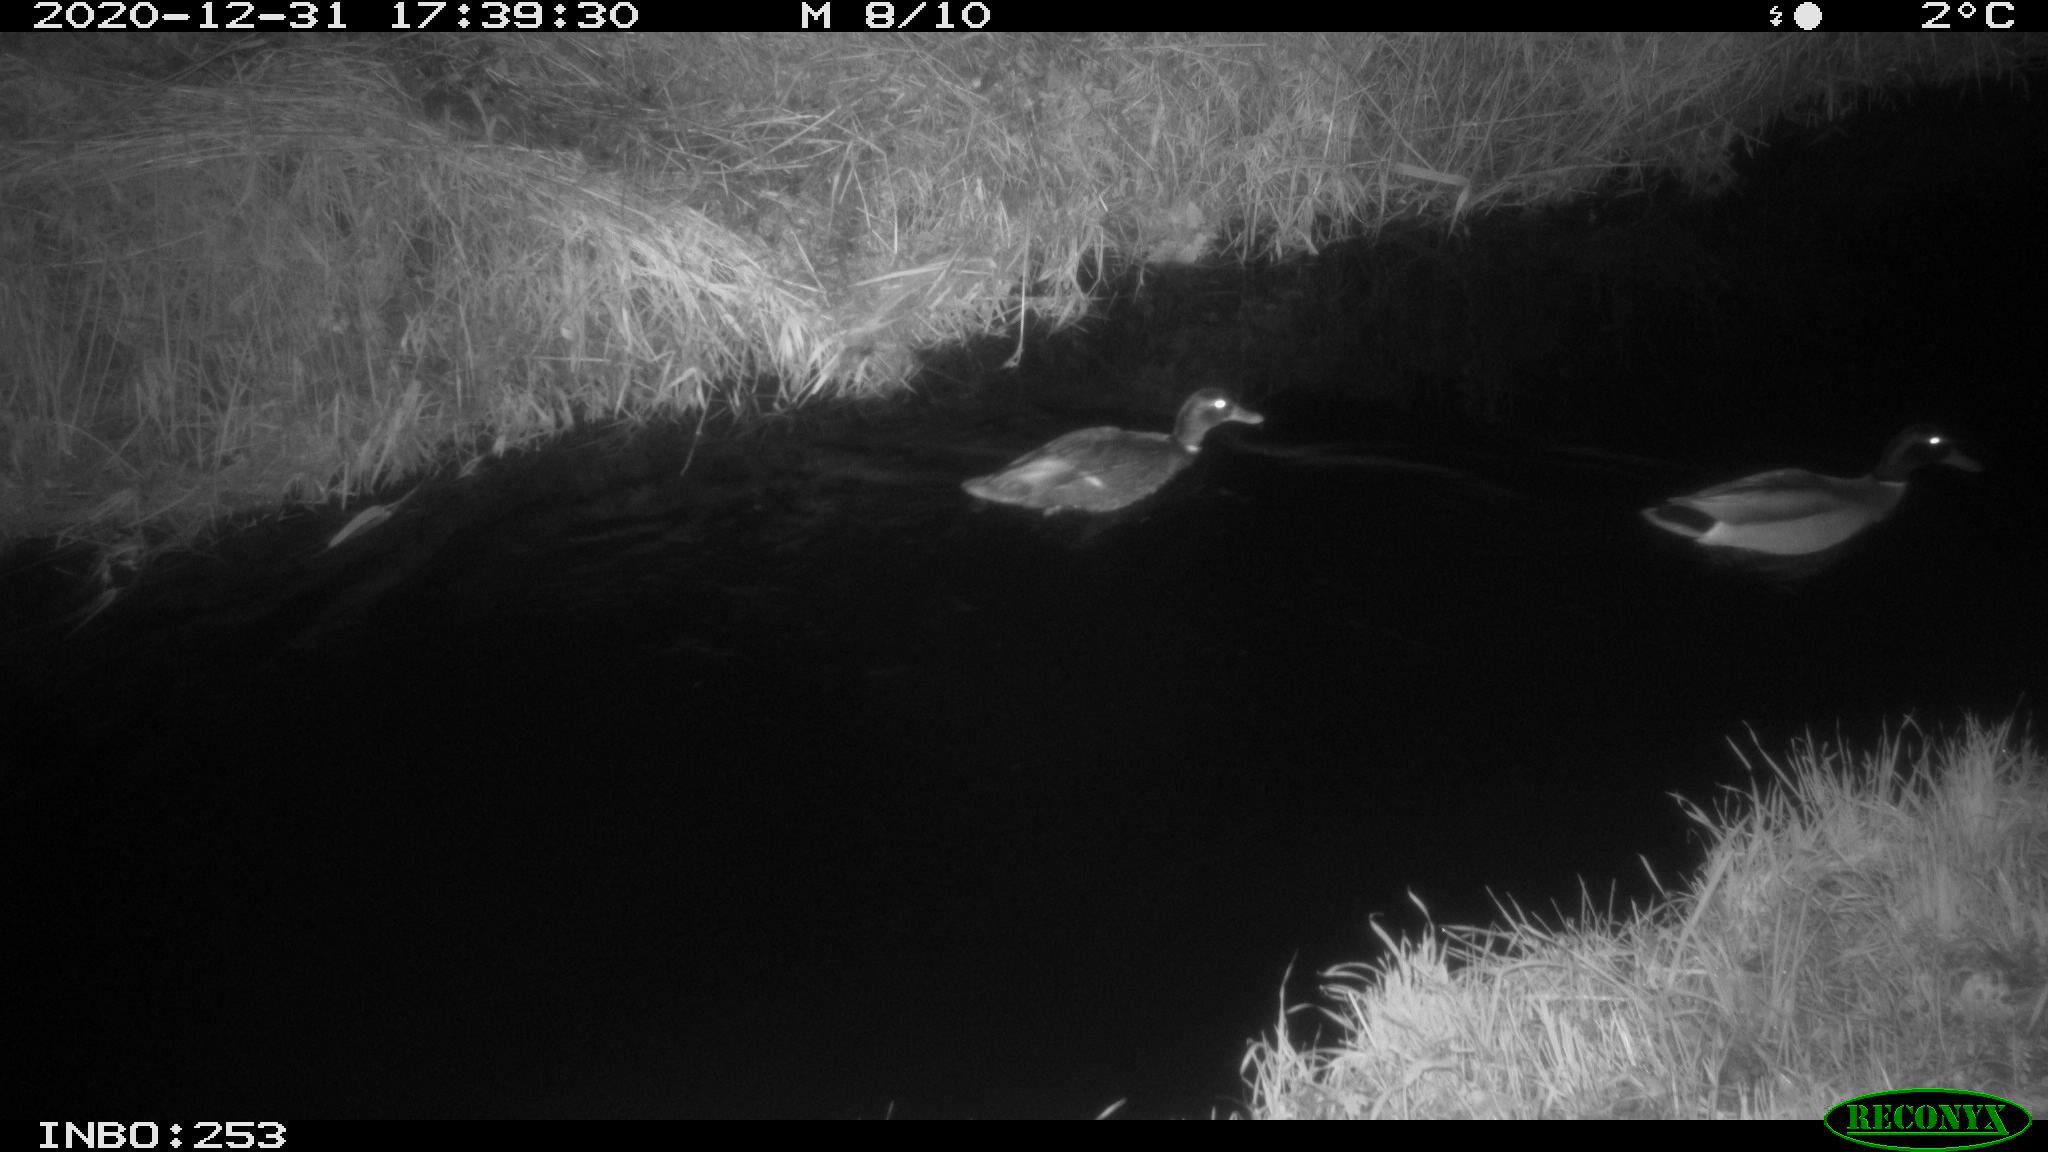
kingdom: Animalia
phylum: Chordata
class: Aves
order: Anseriformes
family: Anatidae
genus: Anas
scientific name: Anas platyrhynchos
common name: Mallard
